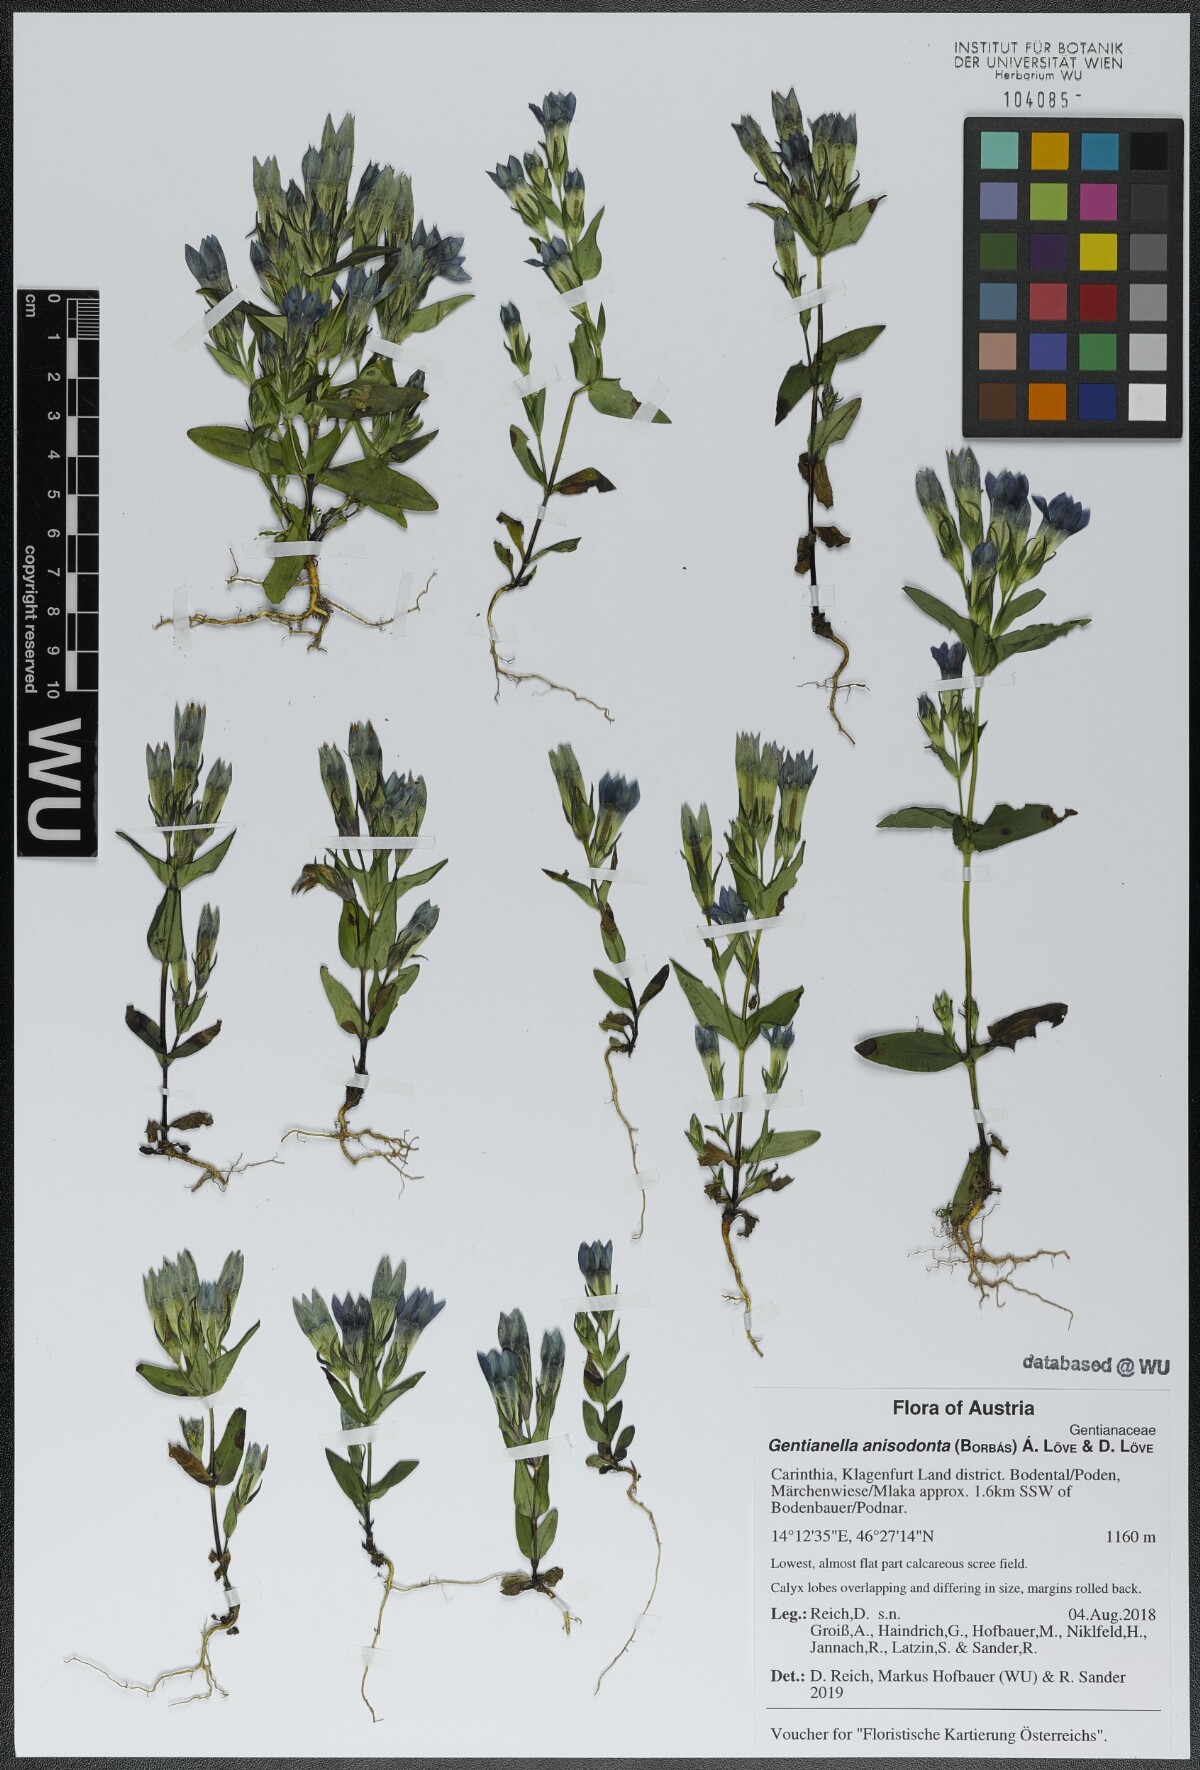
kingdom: Plantae
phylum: Tracheophyta
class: Magnoliopsida
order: Gentianales
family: Gentianaceae
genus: Gentianella
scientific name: Gentianella anisodonta
